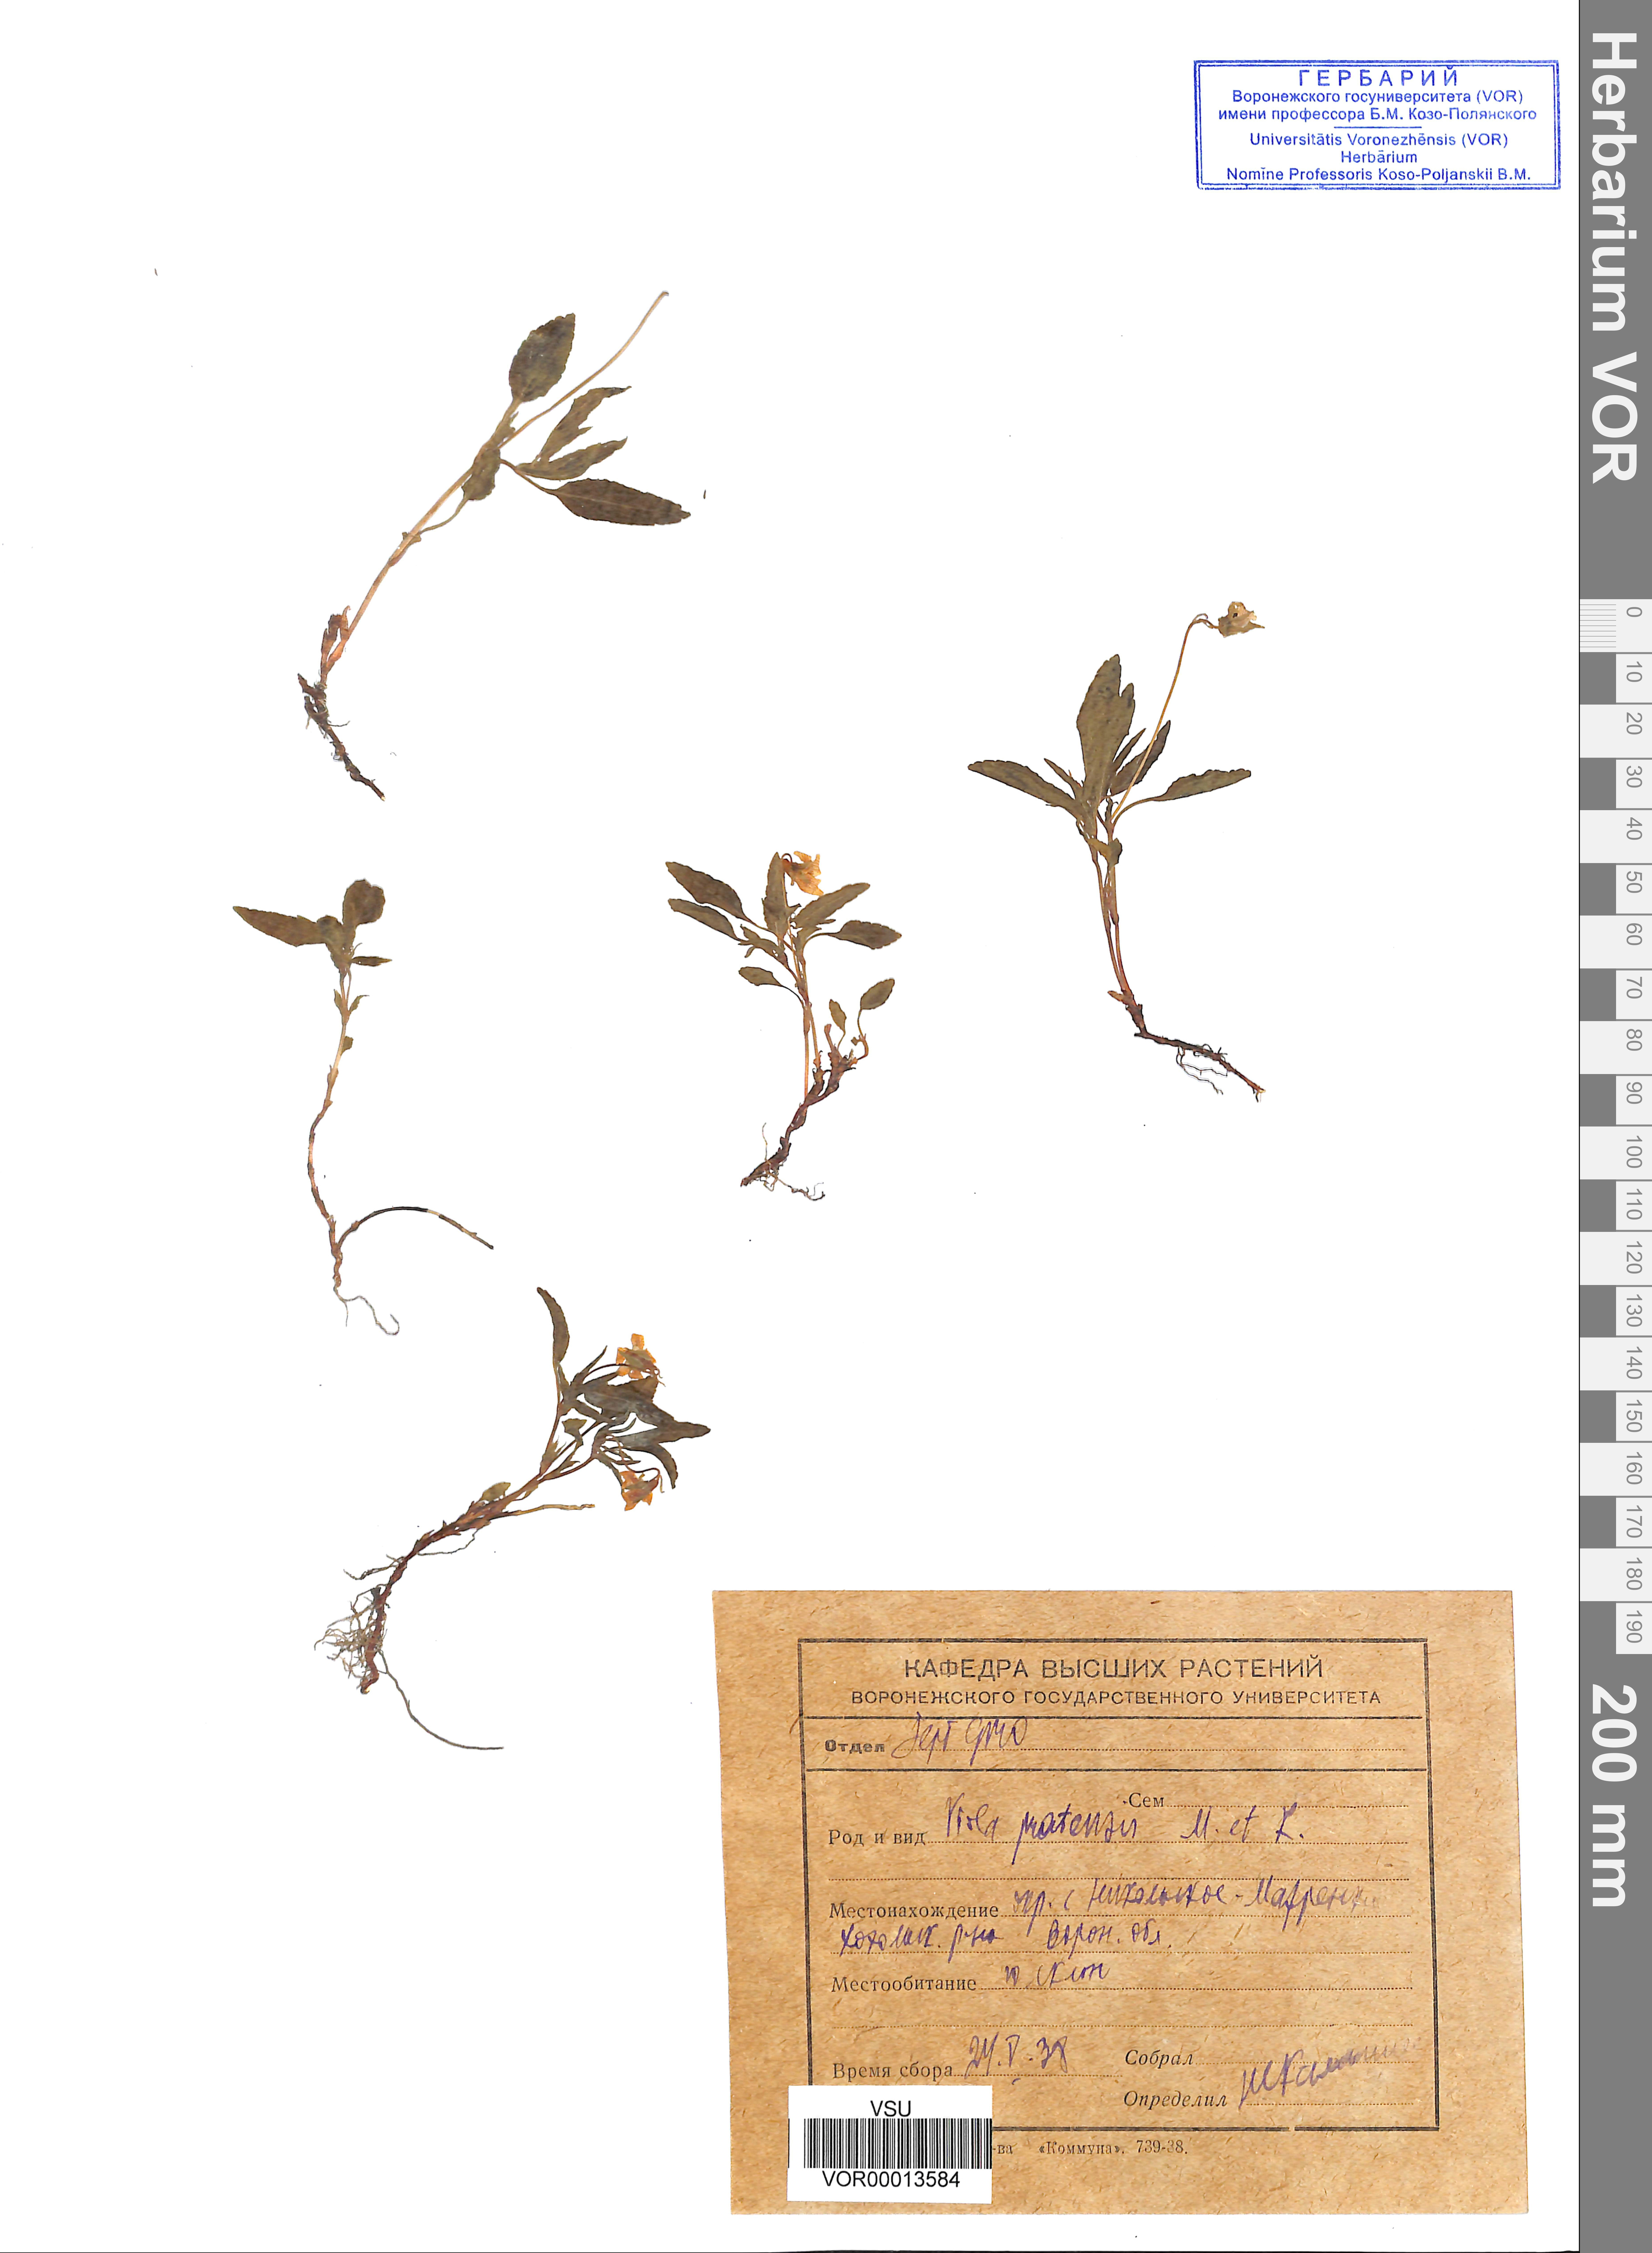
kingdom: Plantae
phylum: Tracheophyta
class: Magnoliopsida
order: Malpighiales
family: Violaceae
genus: Viola
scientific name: Viola pumila
